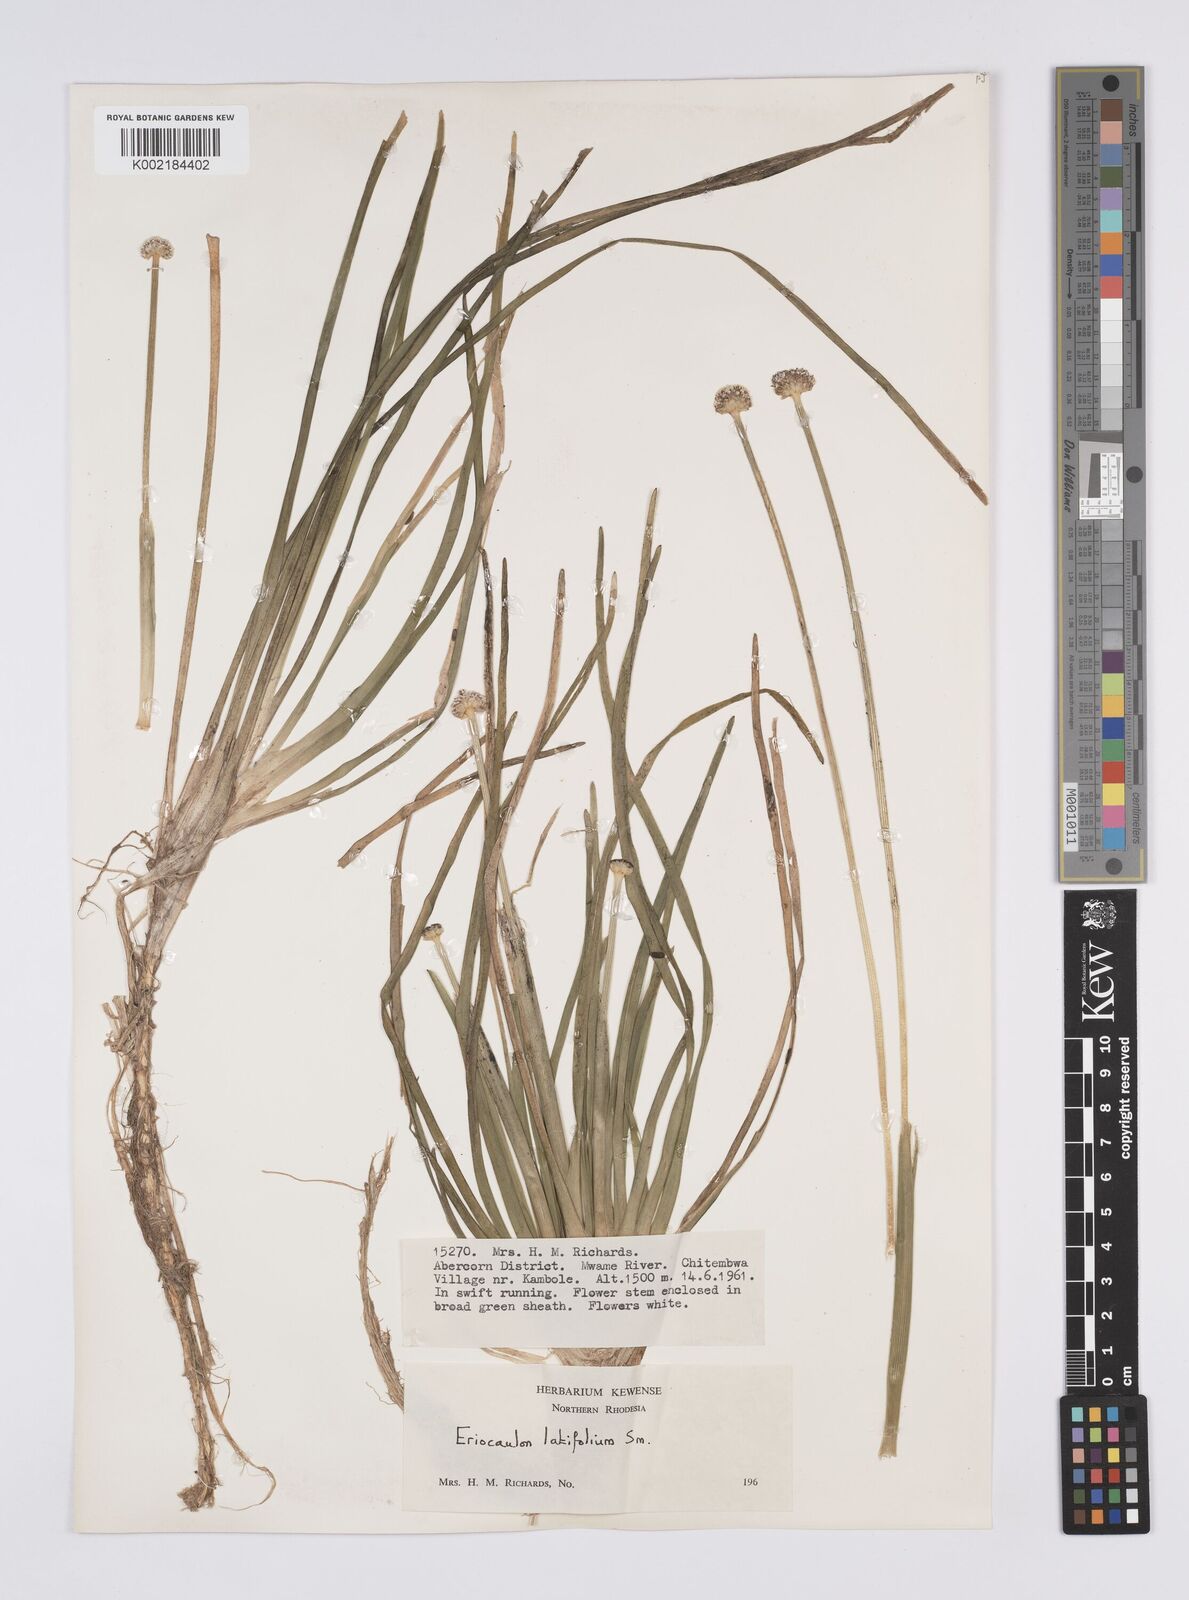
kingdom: Plantae
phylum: Tracheophyta
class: Liliopsida
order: Poales
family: Eriocaulaceae
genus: Eriocaulon
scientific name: Eriocaulon latifolium
